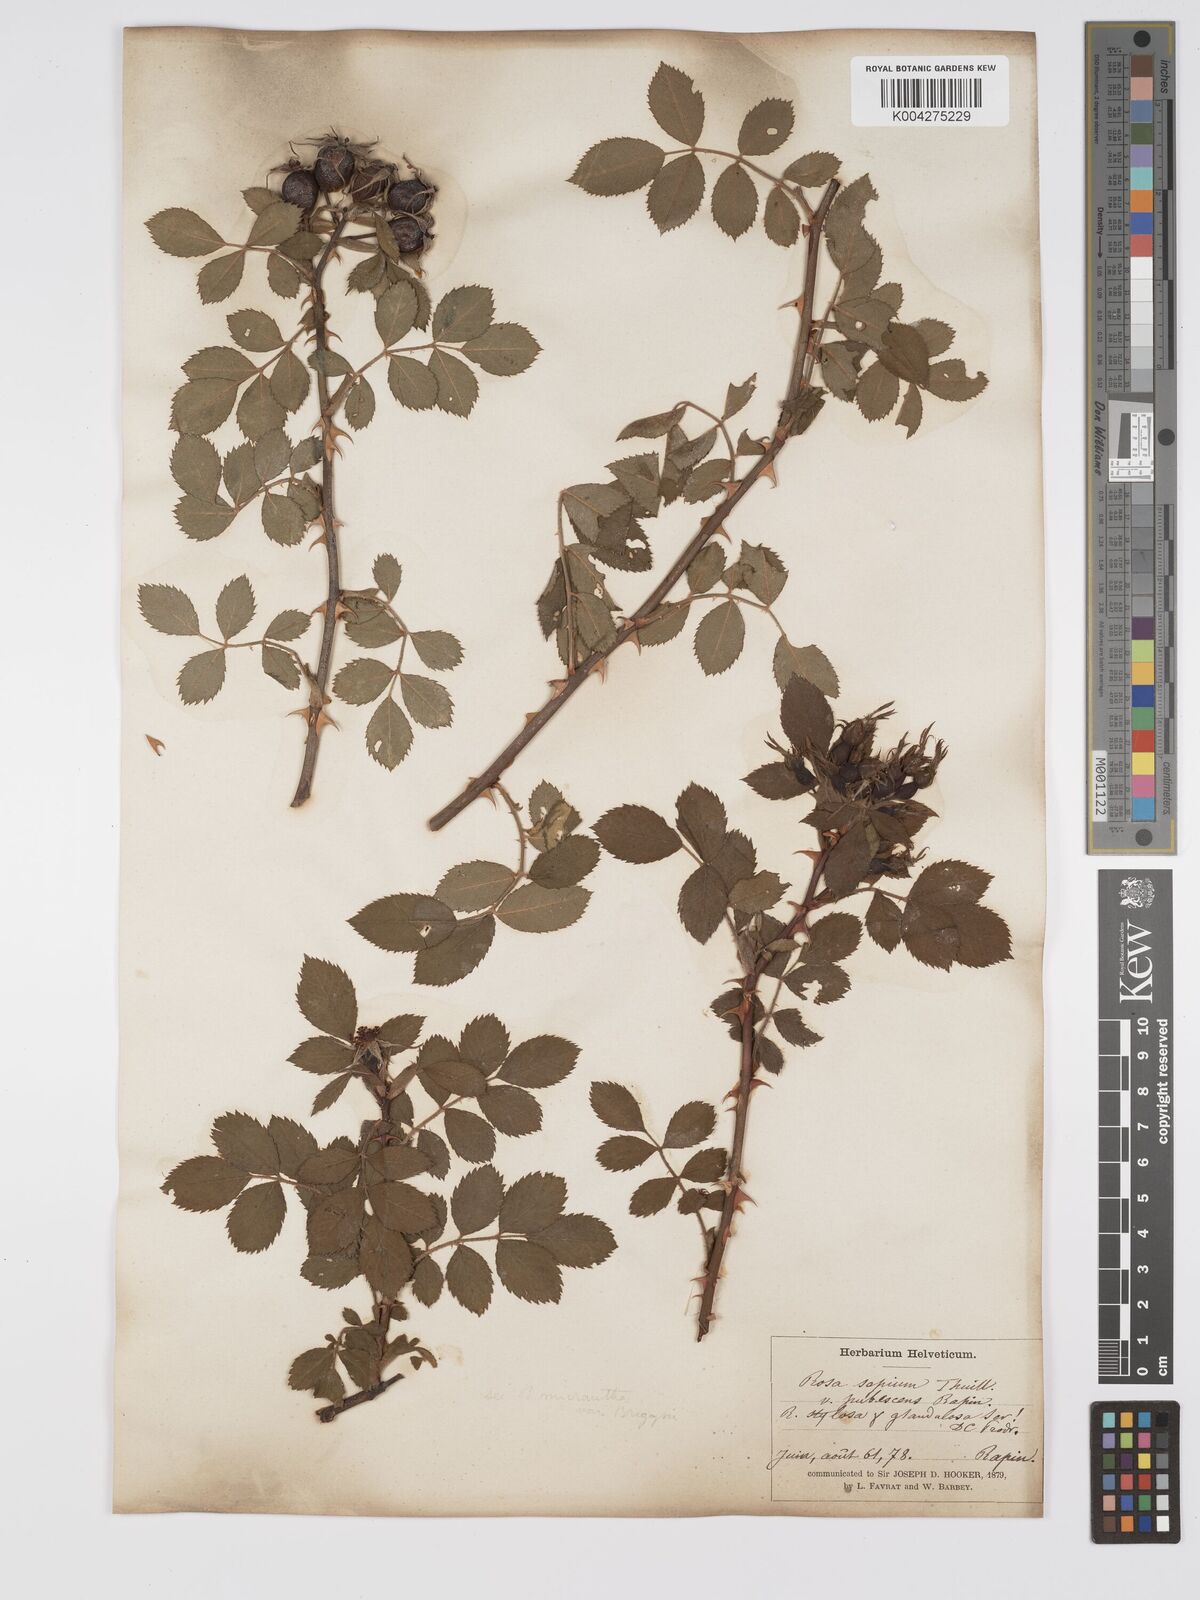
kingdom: Plantae
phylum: Tracheophyta
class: Magnoliopsida
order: Rosales
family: Rosaceae
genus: Rosa
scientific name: Rosa
